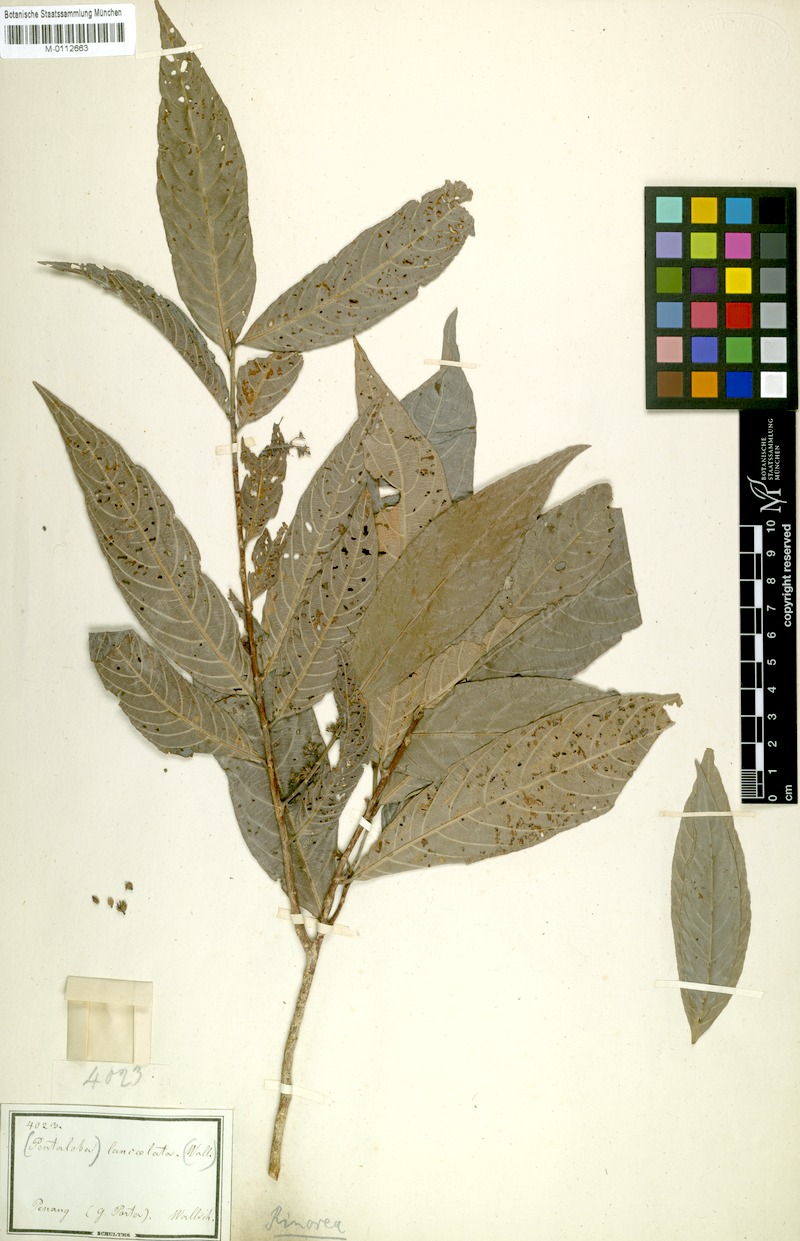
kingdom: Plantae
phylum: Tracheophyta
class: Magnoliopsida
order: Malpighiales
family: Violaceae
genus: Rinorea
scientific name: Rinorea lanceolata
